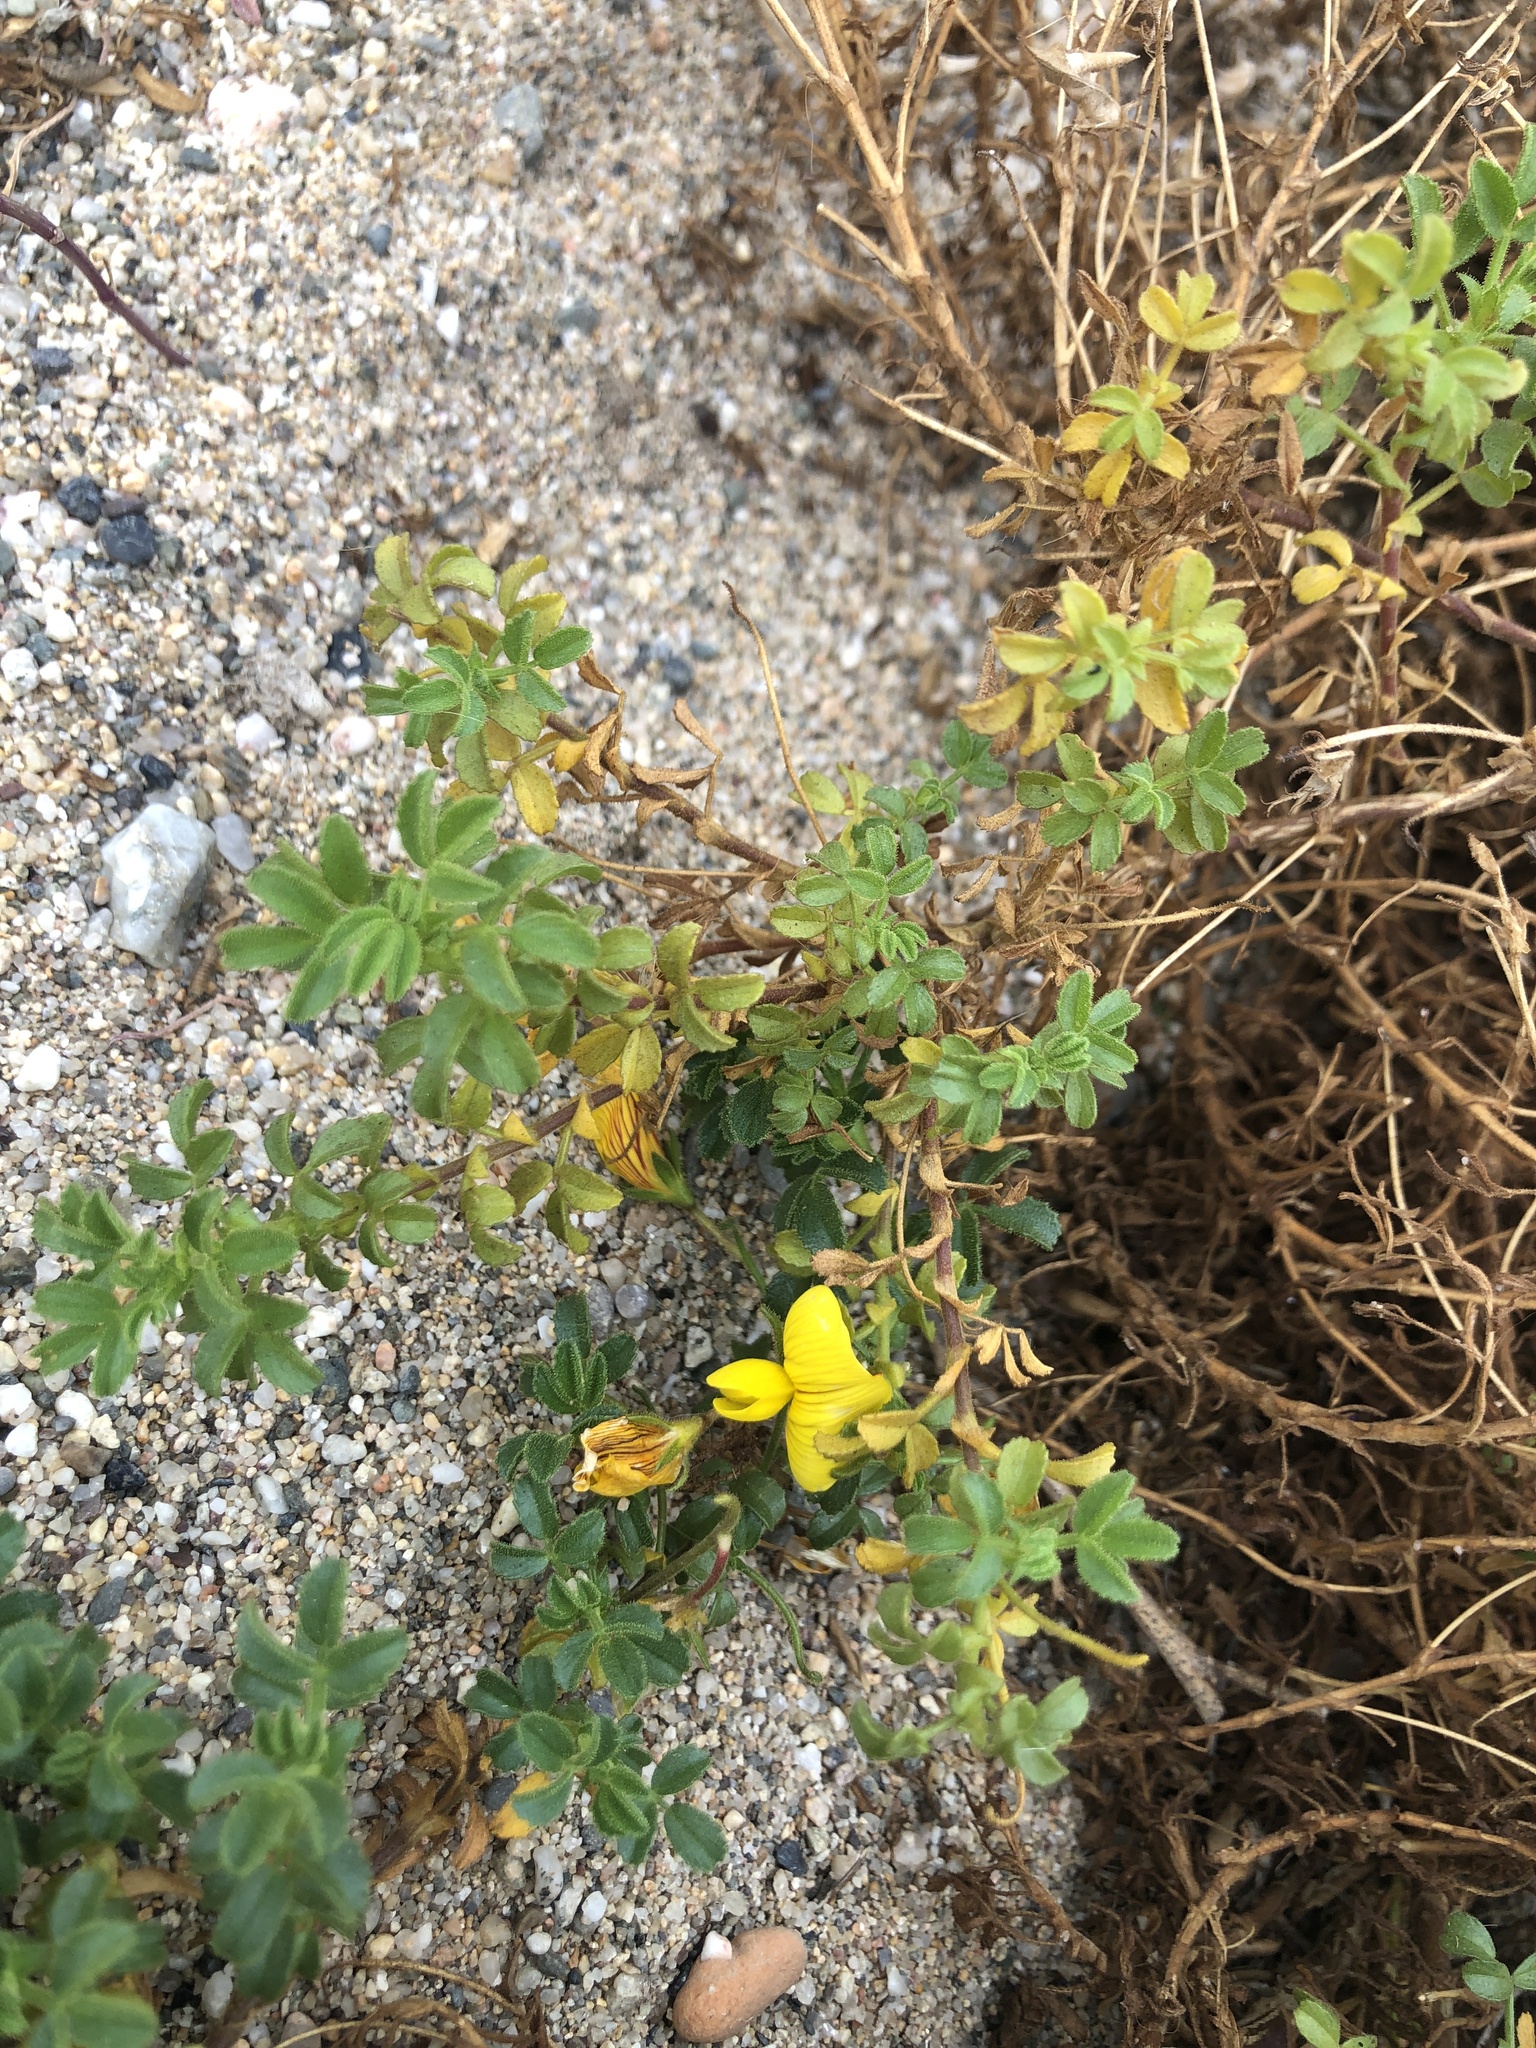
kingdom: Plantae
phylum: Tracheophyta
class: Magnoliopsida
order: Fabales
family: Fabaceae
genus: Ononis
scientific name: Ononis natrix
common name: Yellow restharrow
